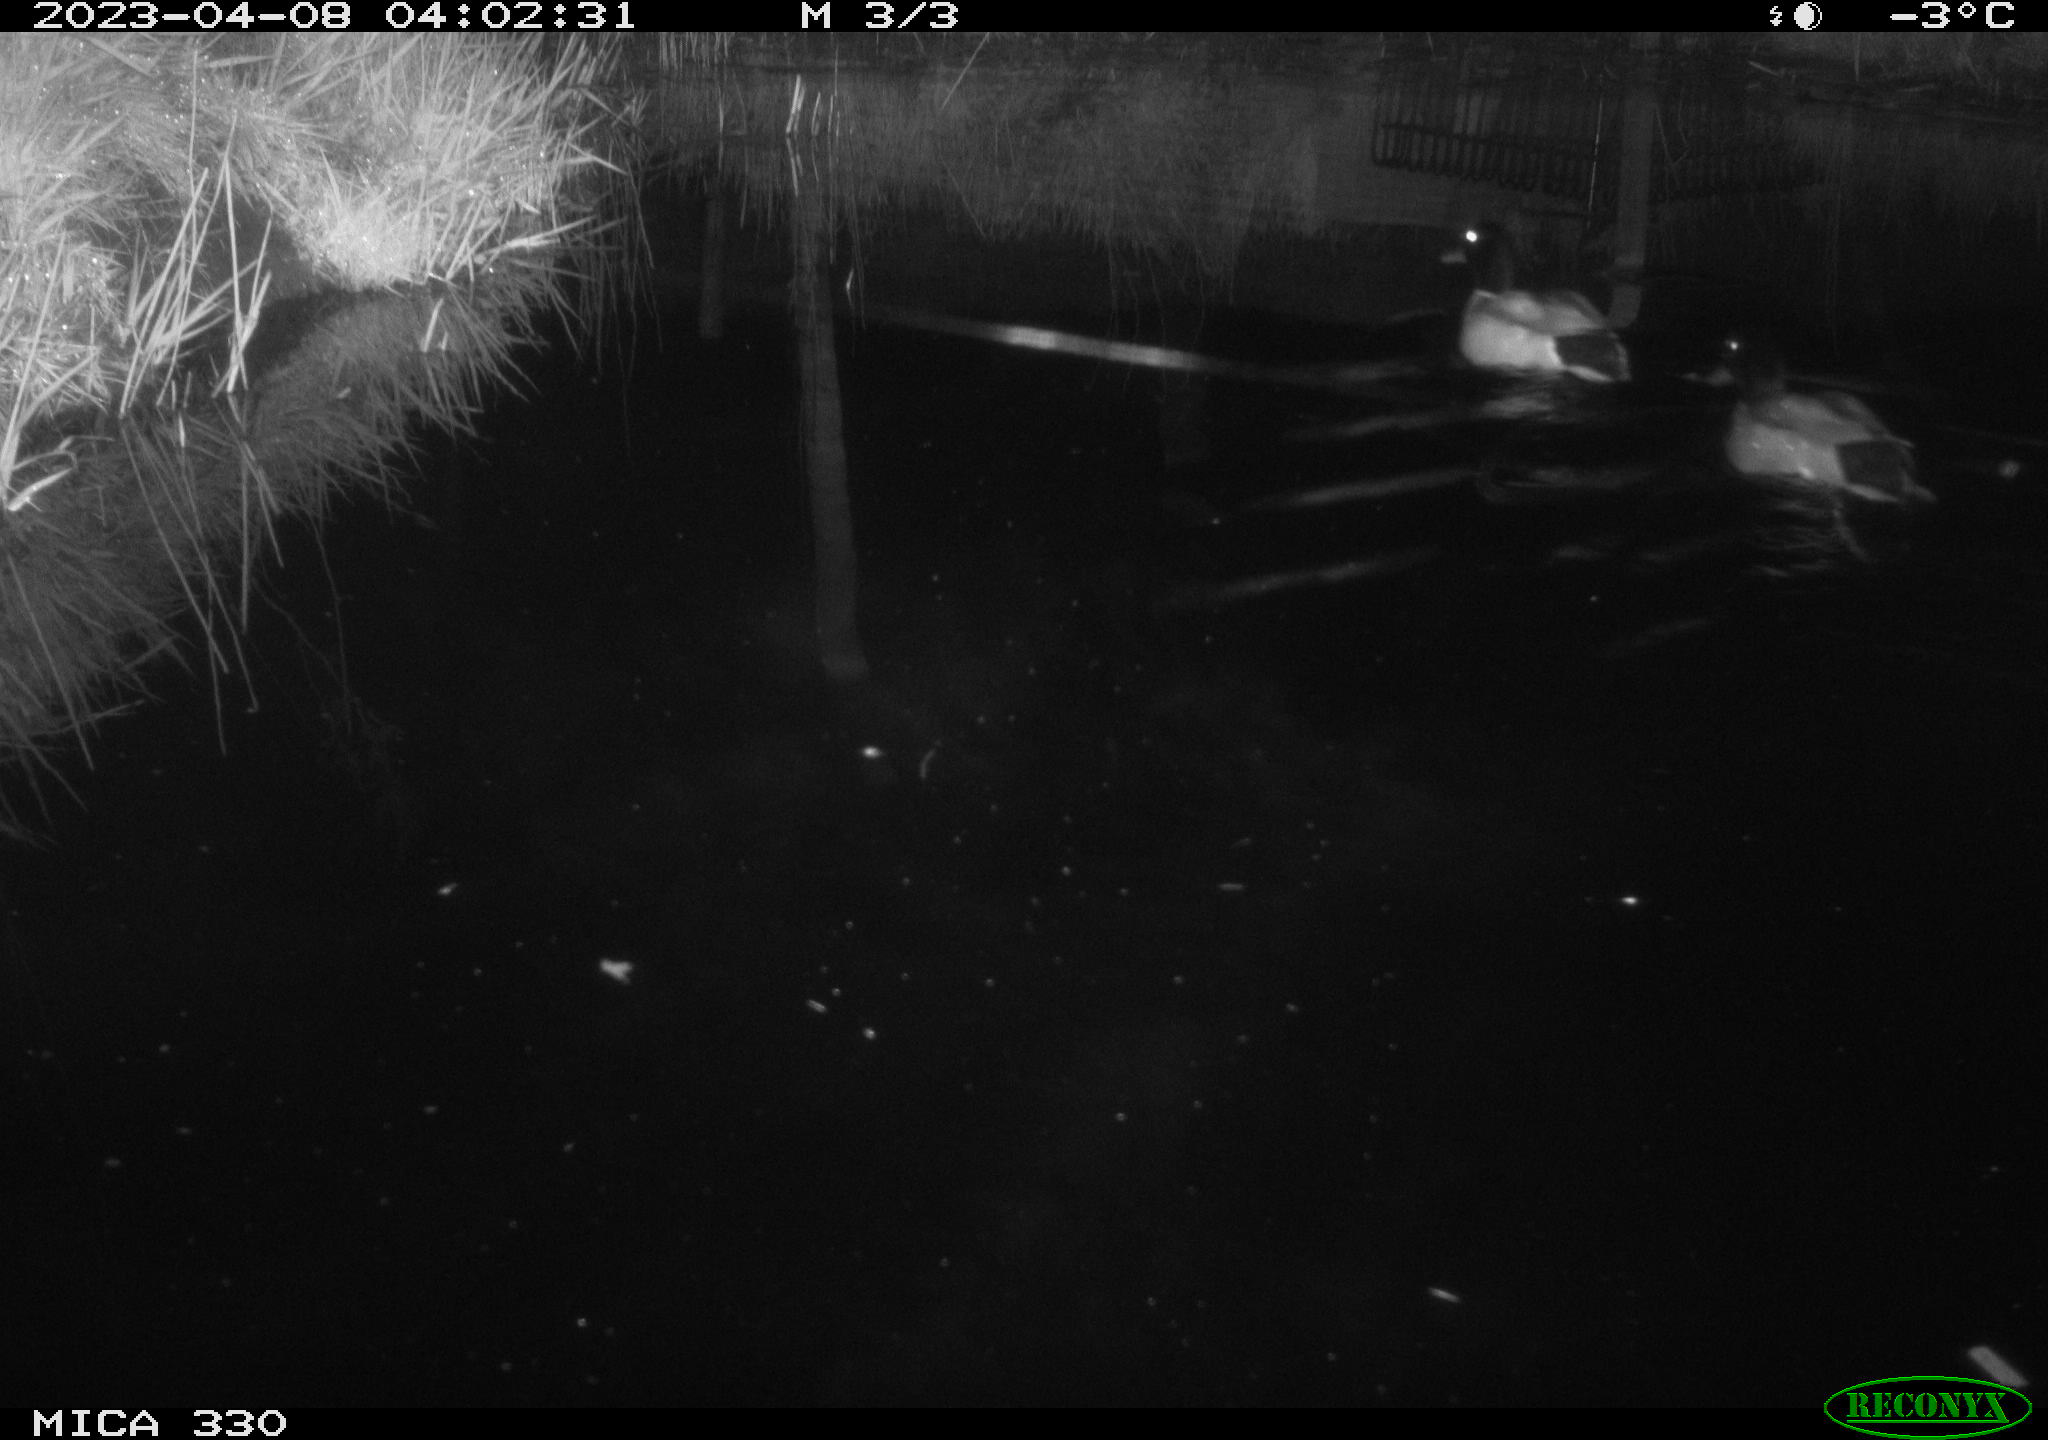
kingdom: Animalia
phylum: Chordata
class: Aves
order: Anseriformes
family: Anatidae
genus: Anas
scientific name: Anas
